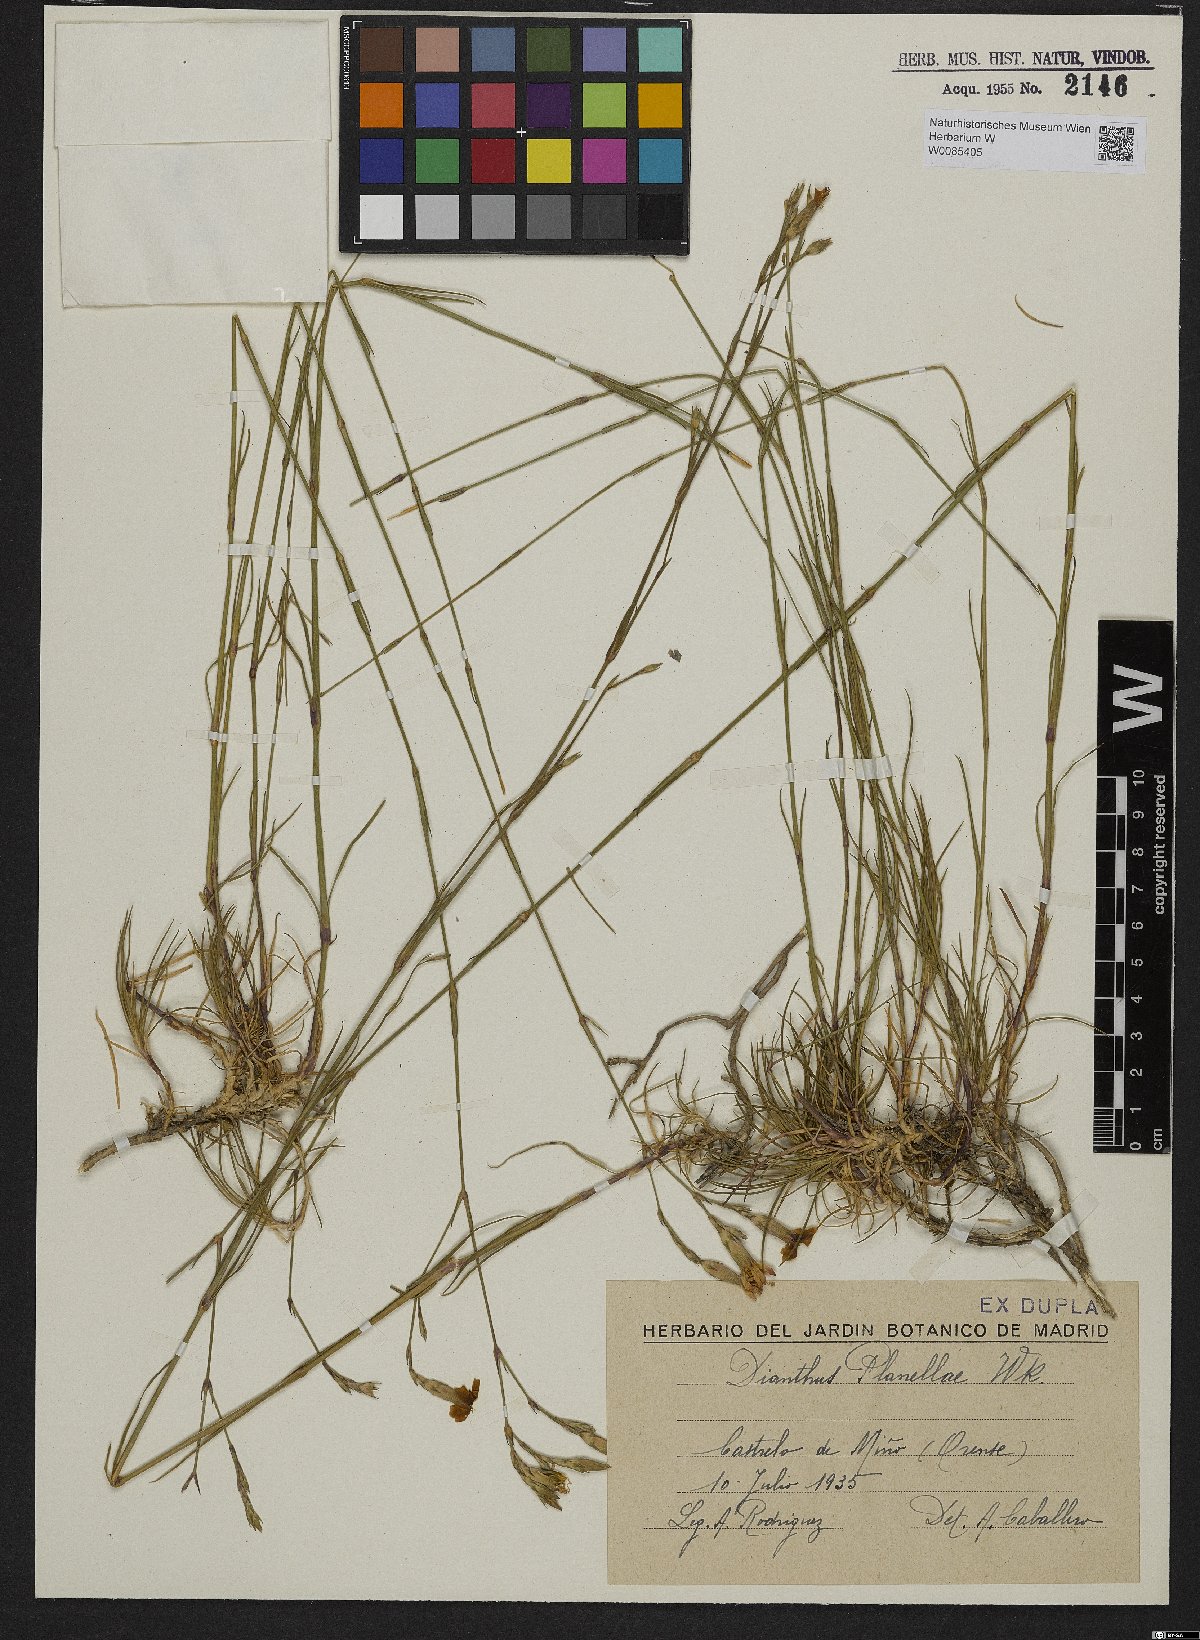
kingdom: Plantae
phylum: Tracheophyta
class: Magnoliopsida
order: Caryophyllales
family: Caryophyllaceae
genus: Dianthus
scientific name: Dianthus laricifolius
